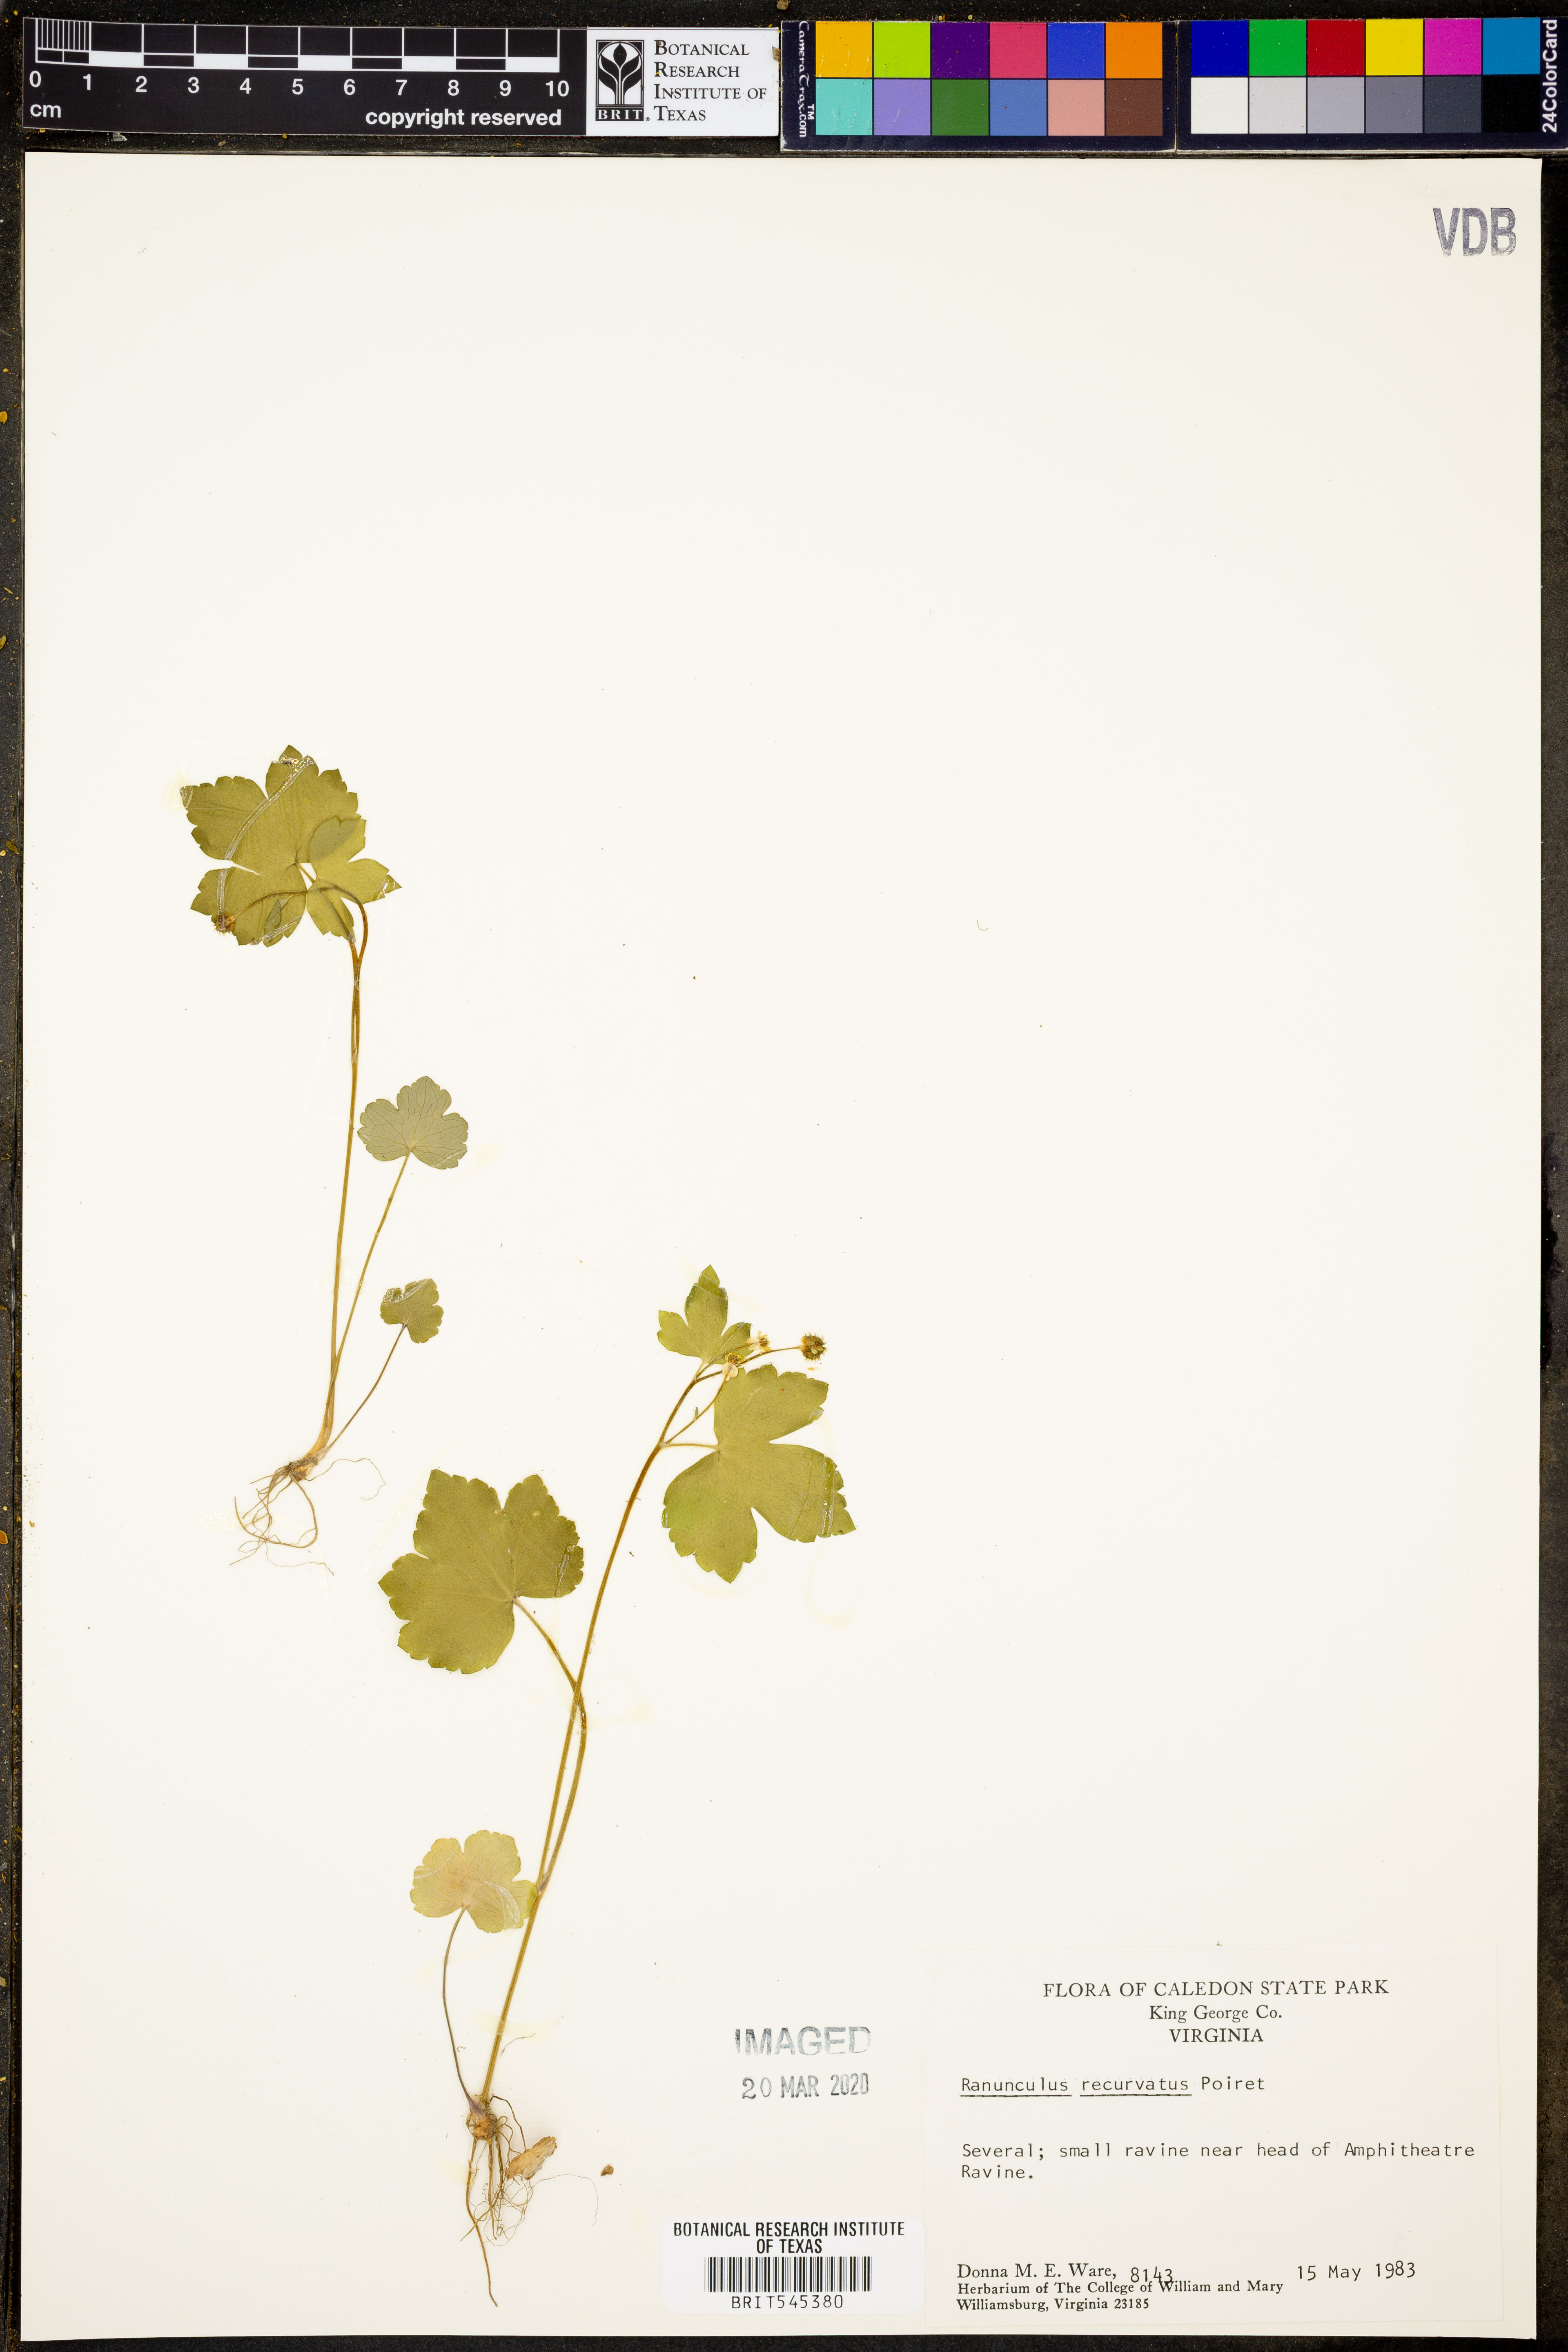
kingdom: Plantae
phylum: Tracheophyta
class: Magnoliopsida
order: Ranunculales
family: Ranunculaceae
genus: Ranunculus
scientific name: Ranunculus recurvatus
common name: Blisterwort
